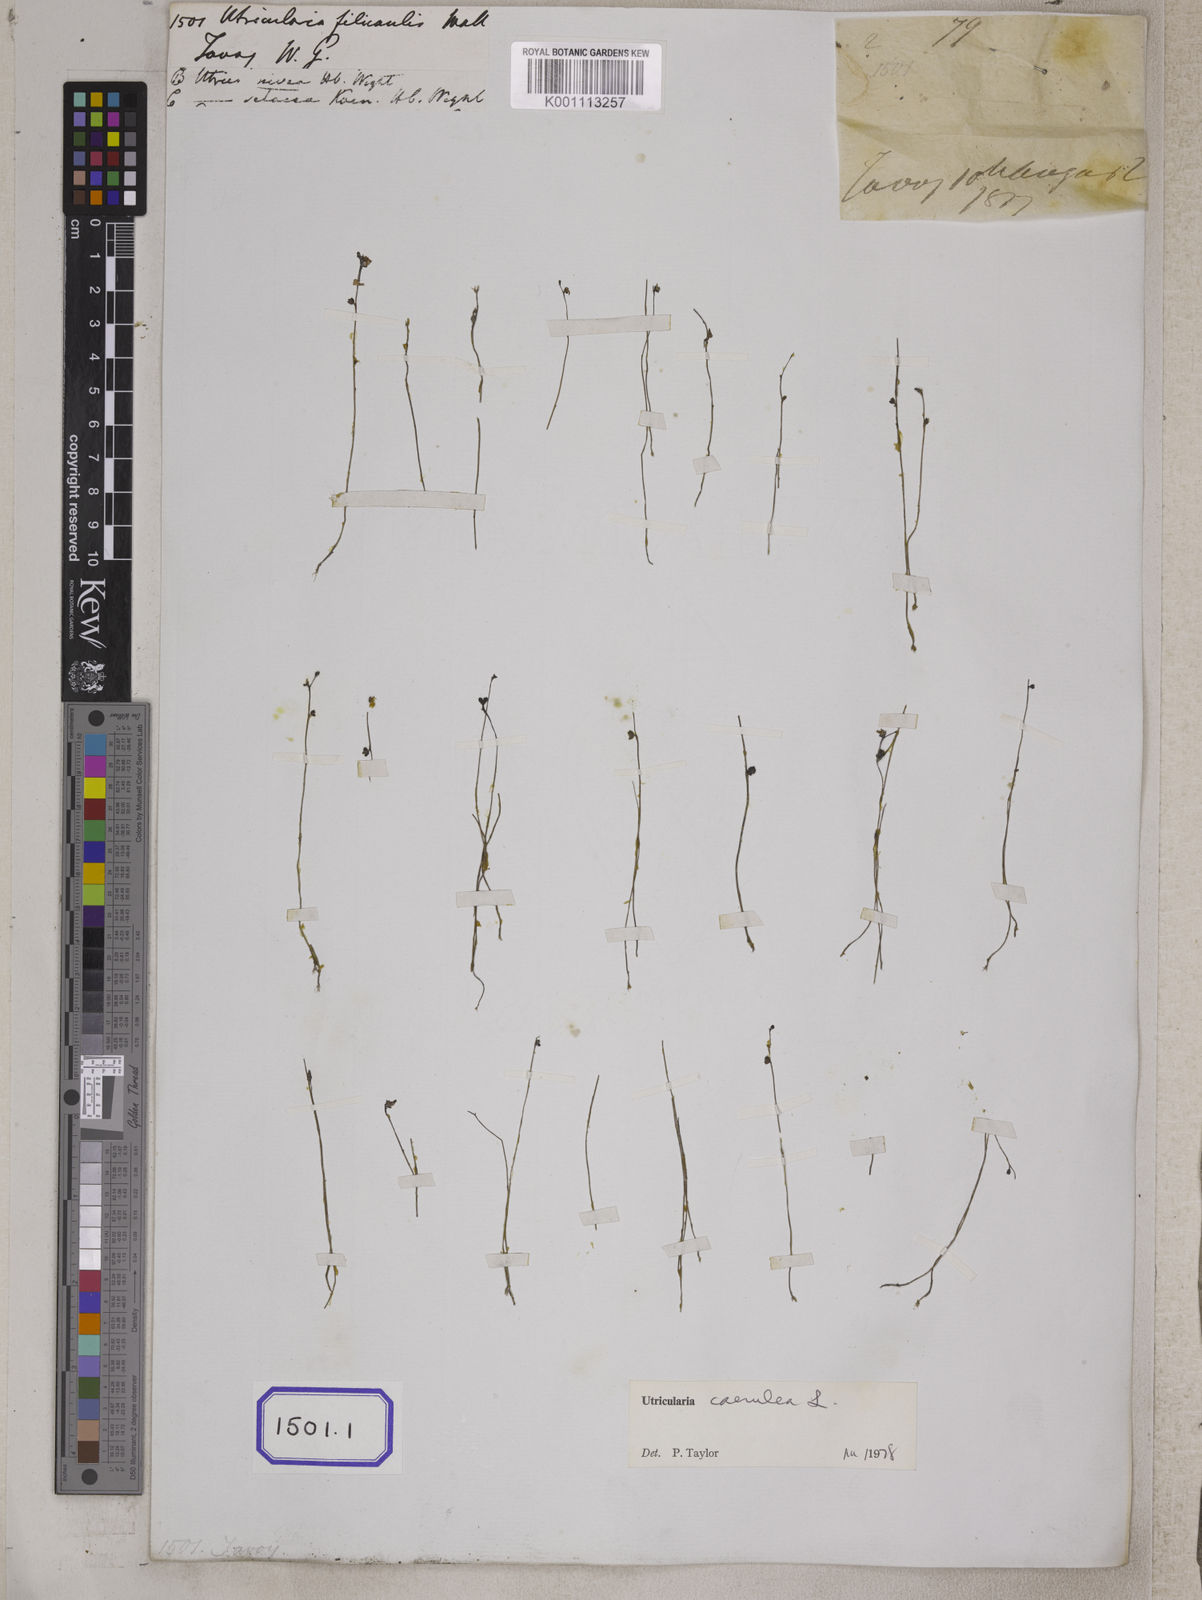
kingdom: Plantae
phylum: Tracheophyta
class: Magnoliopsida
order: Lamiales
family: Lentibulariaceae
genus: Utricularia
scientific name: Utricularia
